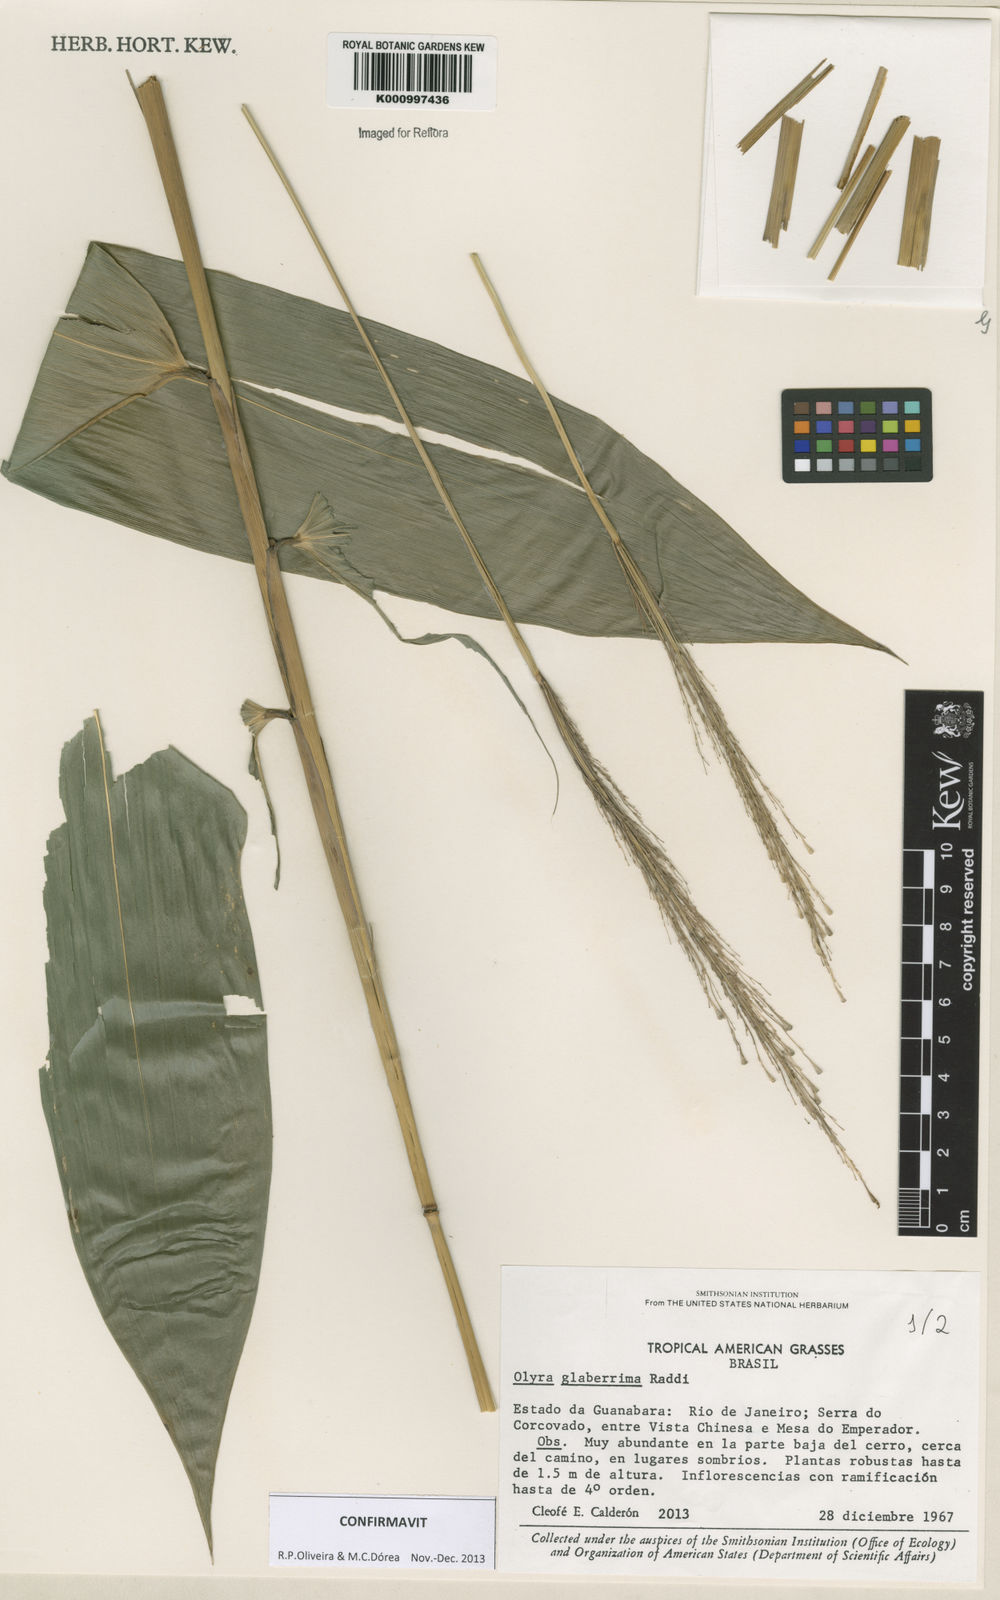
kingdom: Plantae
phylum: Tracheophyta
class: Liliopsida
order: Poales
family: Poaceae
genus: Olyra
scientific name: Olyra glaberrima
